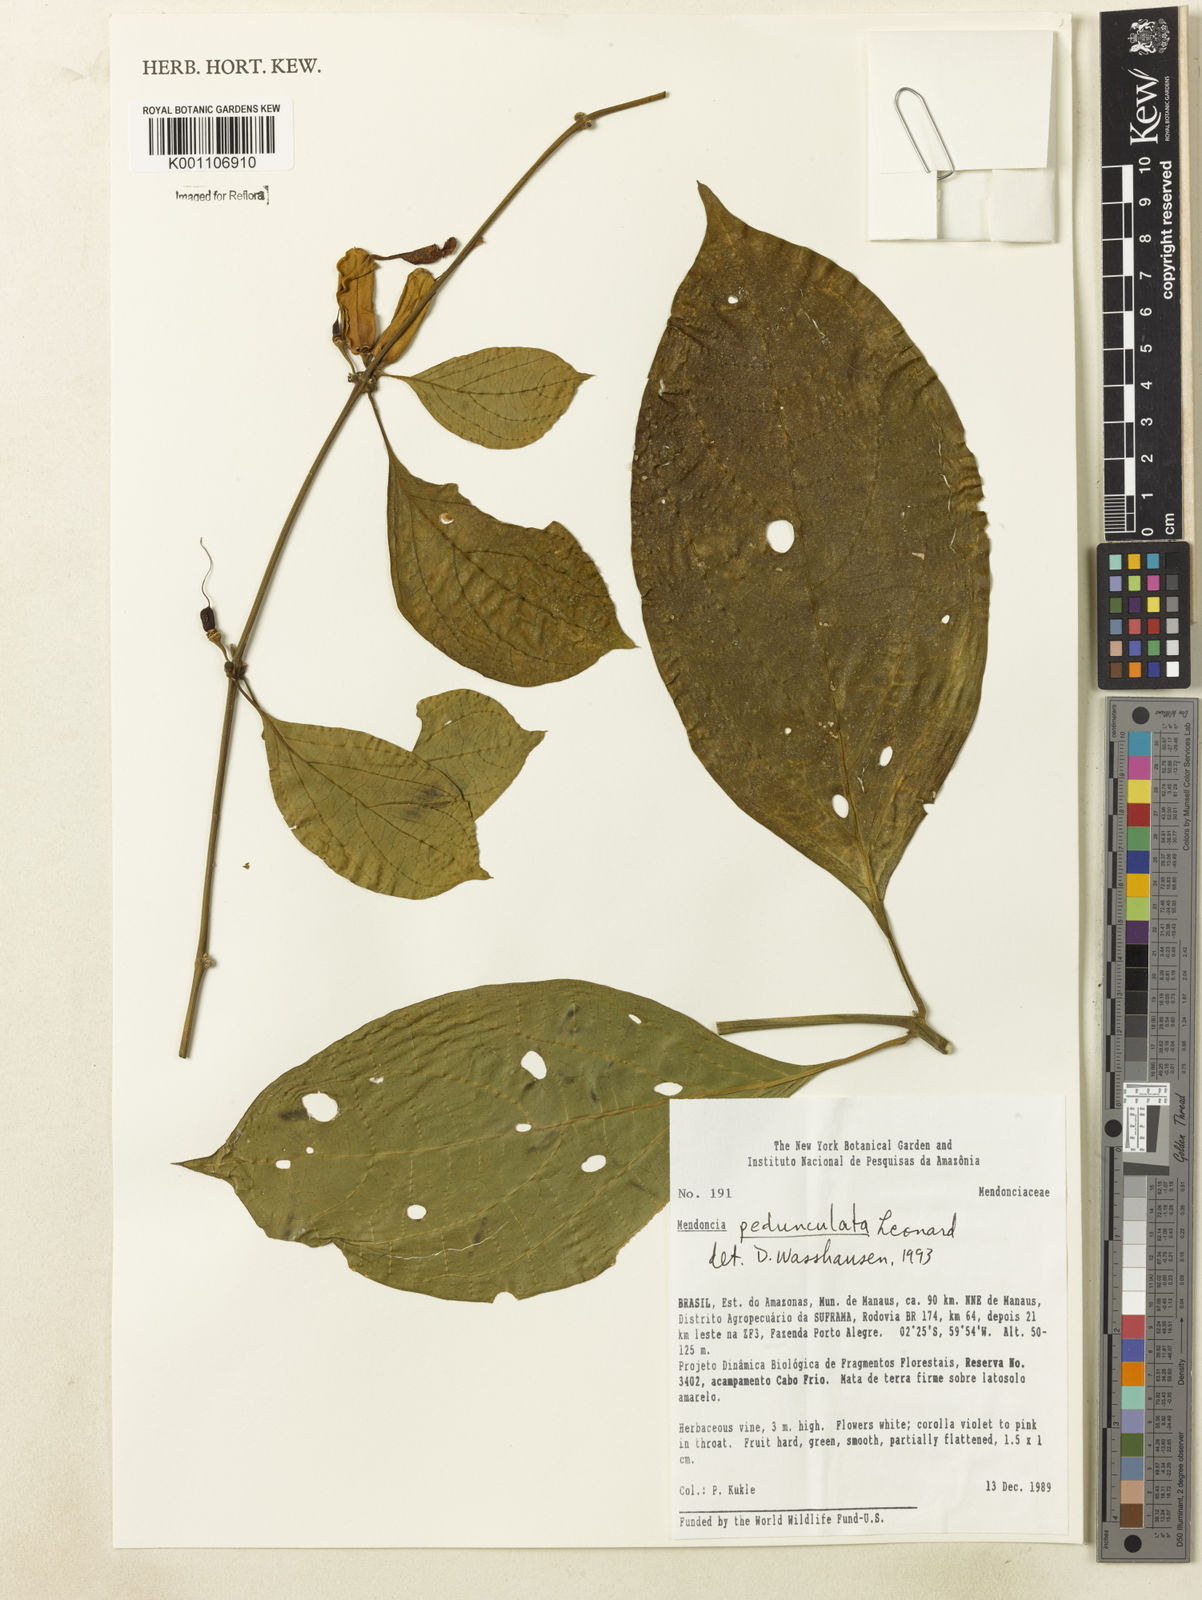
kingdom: Plantae
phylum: Tracheophyta
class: Magnoliopsida
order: Lamiales
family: Acanthaceae
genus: Mendoncia
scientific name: Mendoncia pedunculata
